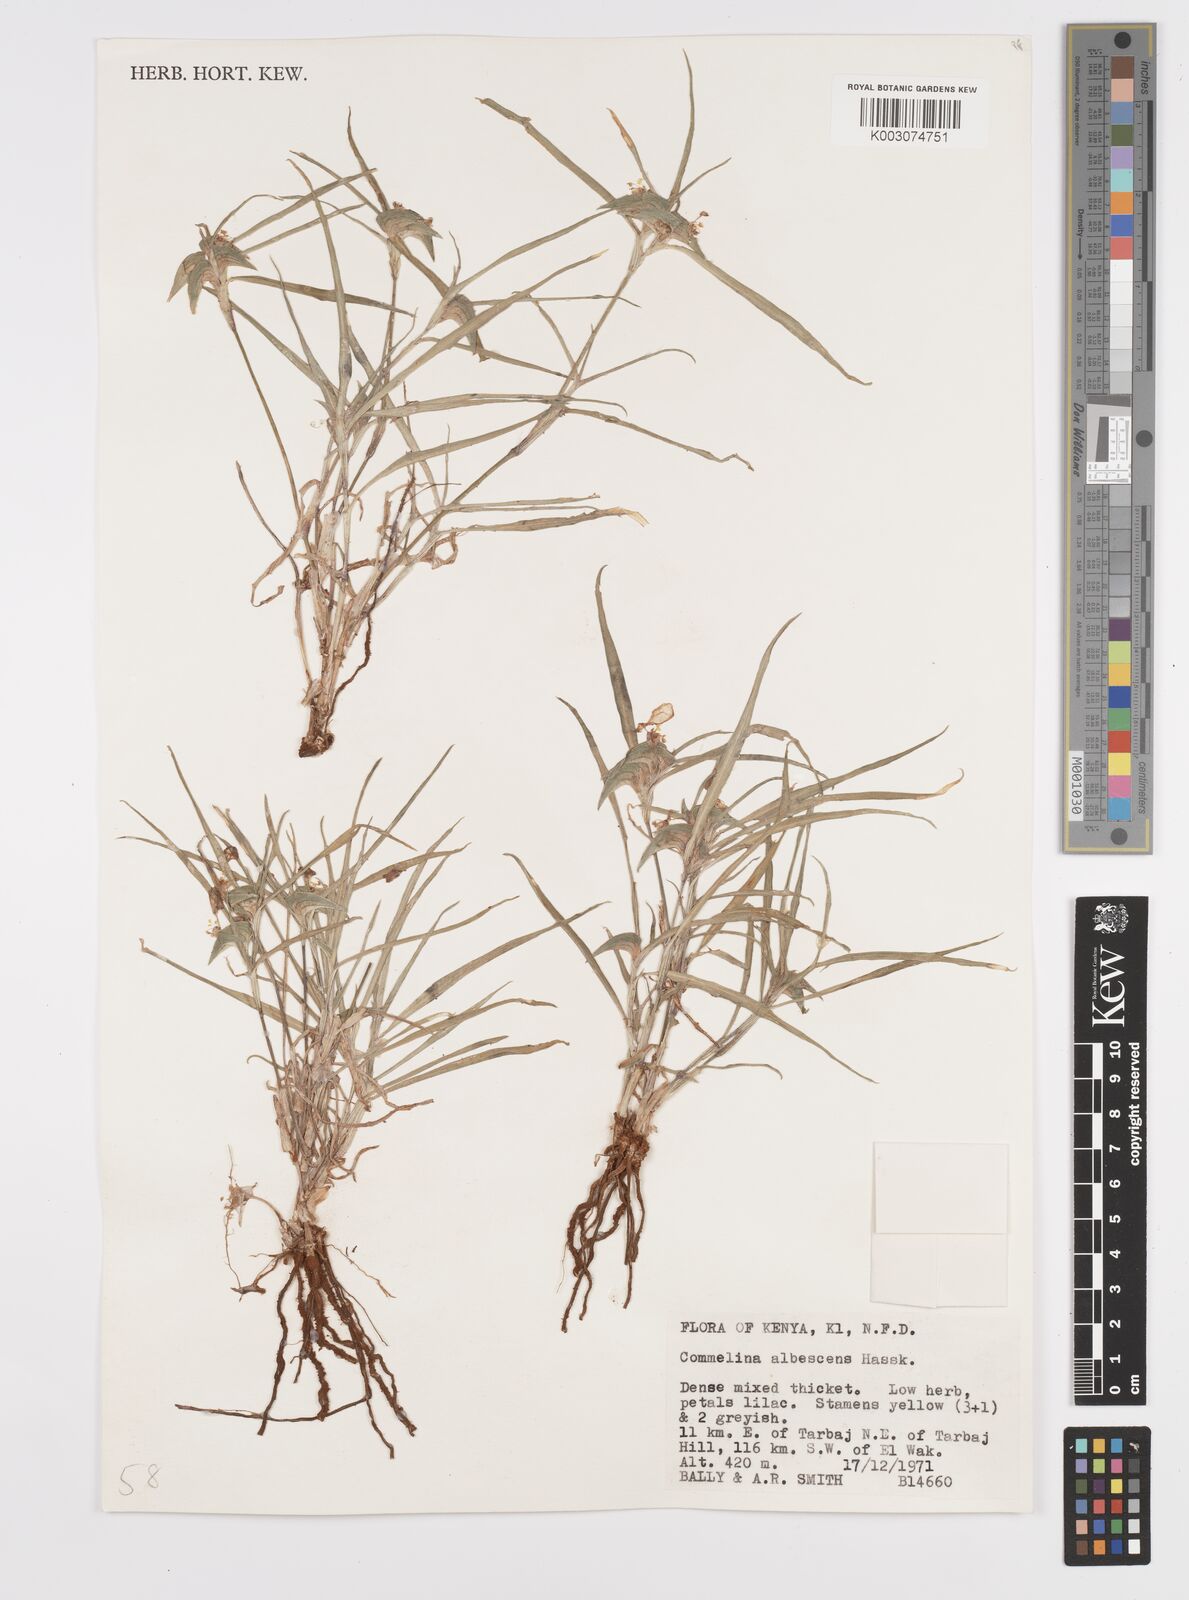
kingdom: Plantae
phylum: Tracheophyta
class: Liliopsida
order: Commelinales
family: Commelinaceae
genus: Commelina
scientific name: Commelina albescens
